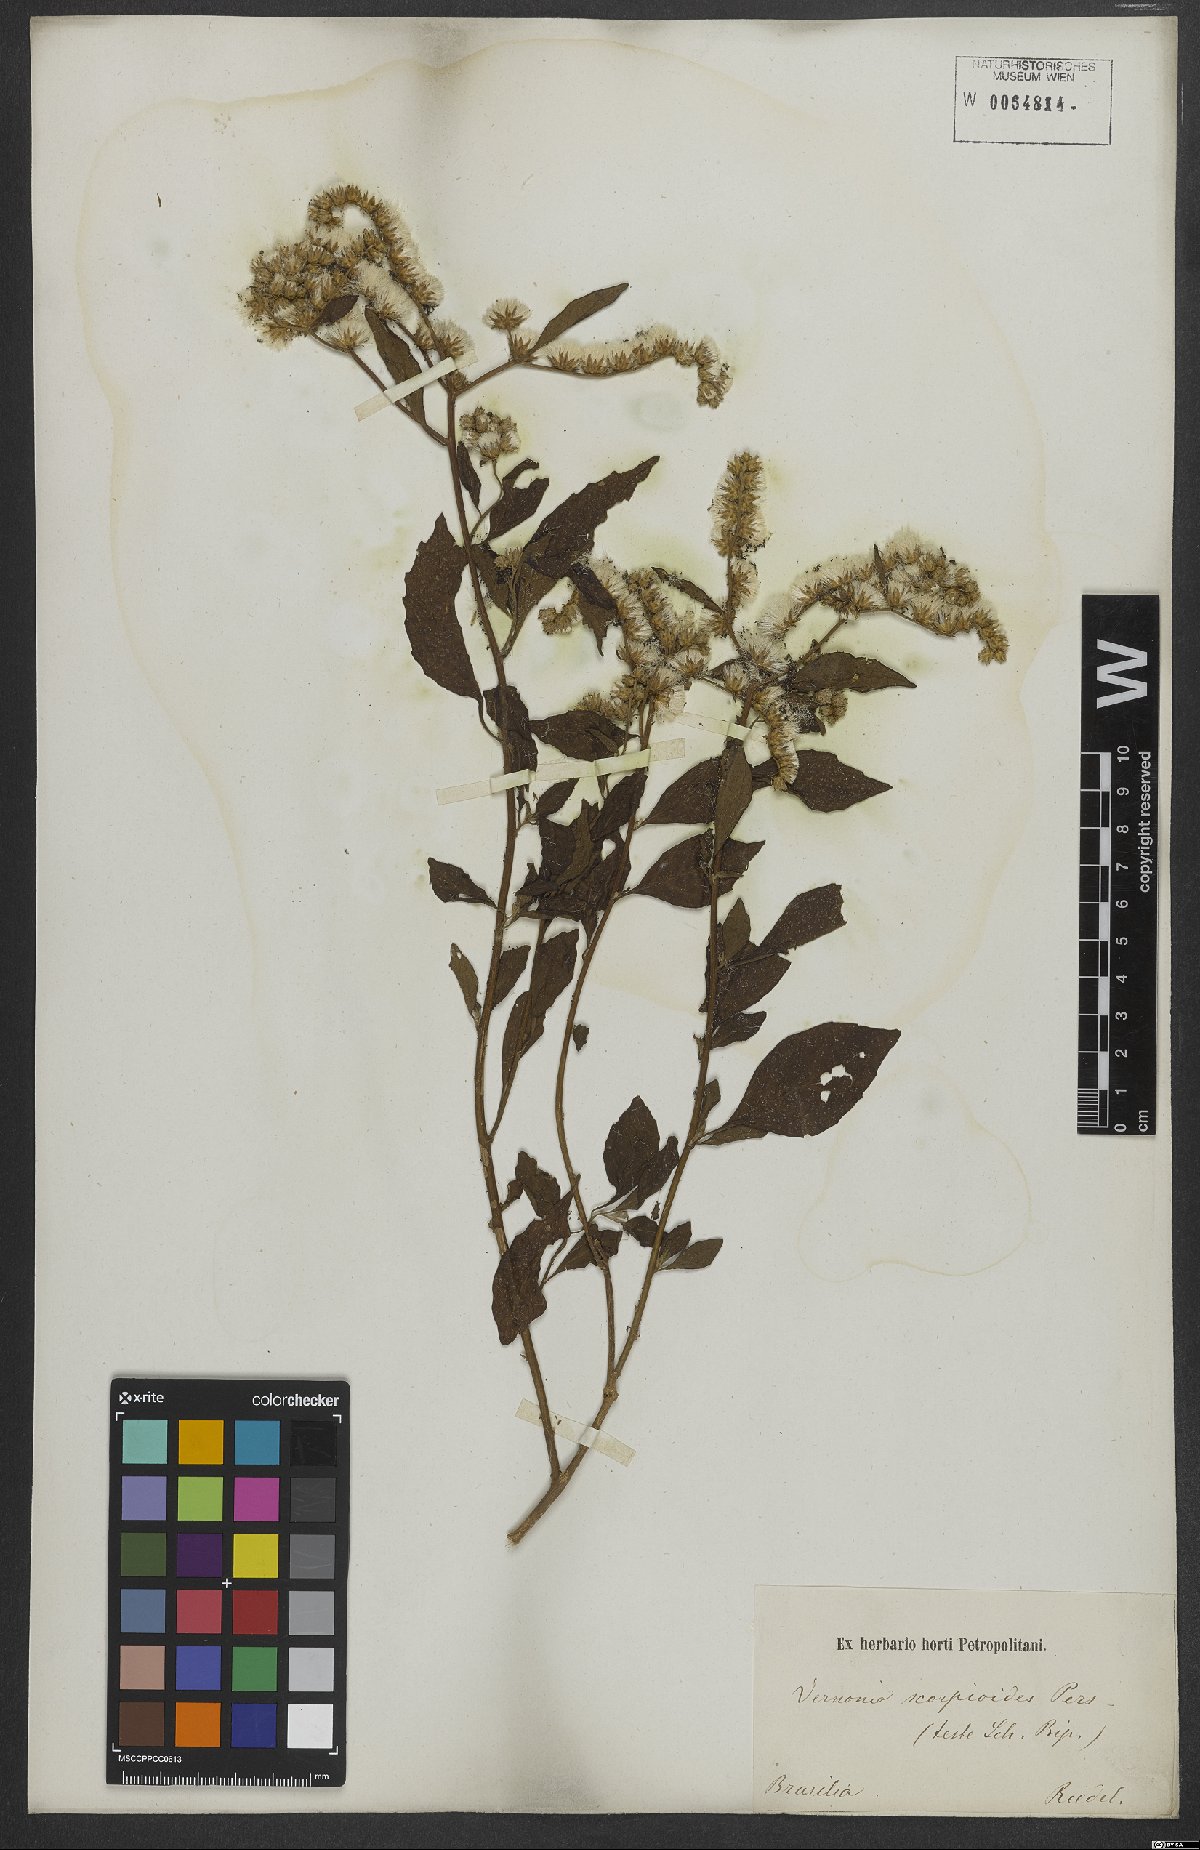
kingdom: Plantae
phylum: Tracheophyta
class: Magnoliopsida
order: Asterales
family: Asteraceae
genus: Cyrtocymura
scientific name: Cyrtocymura scorpioides
